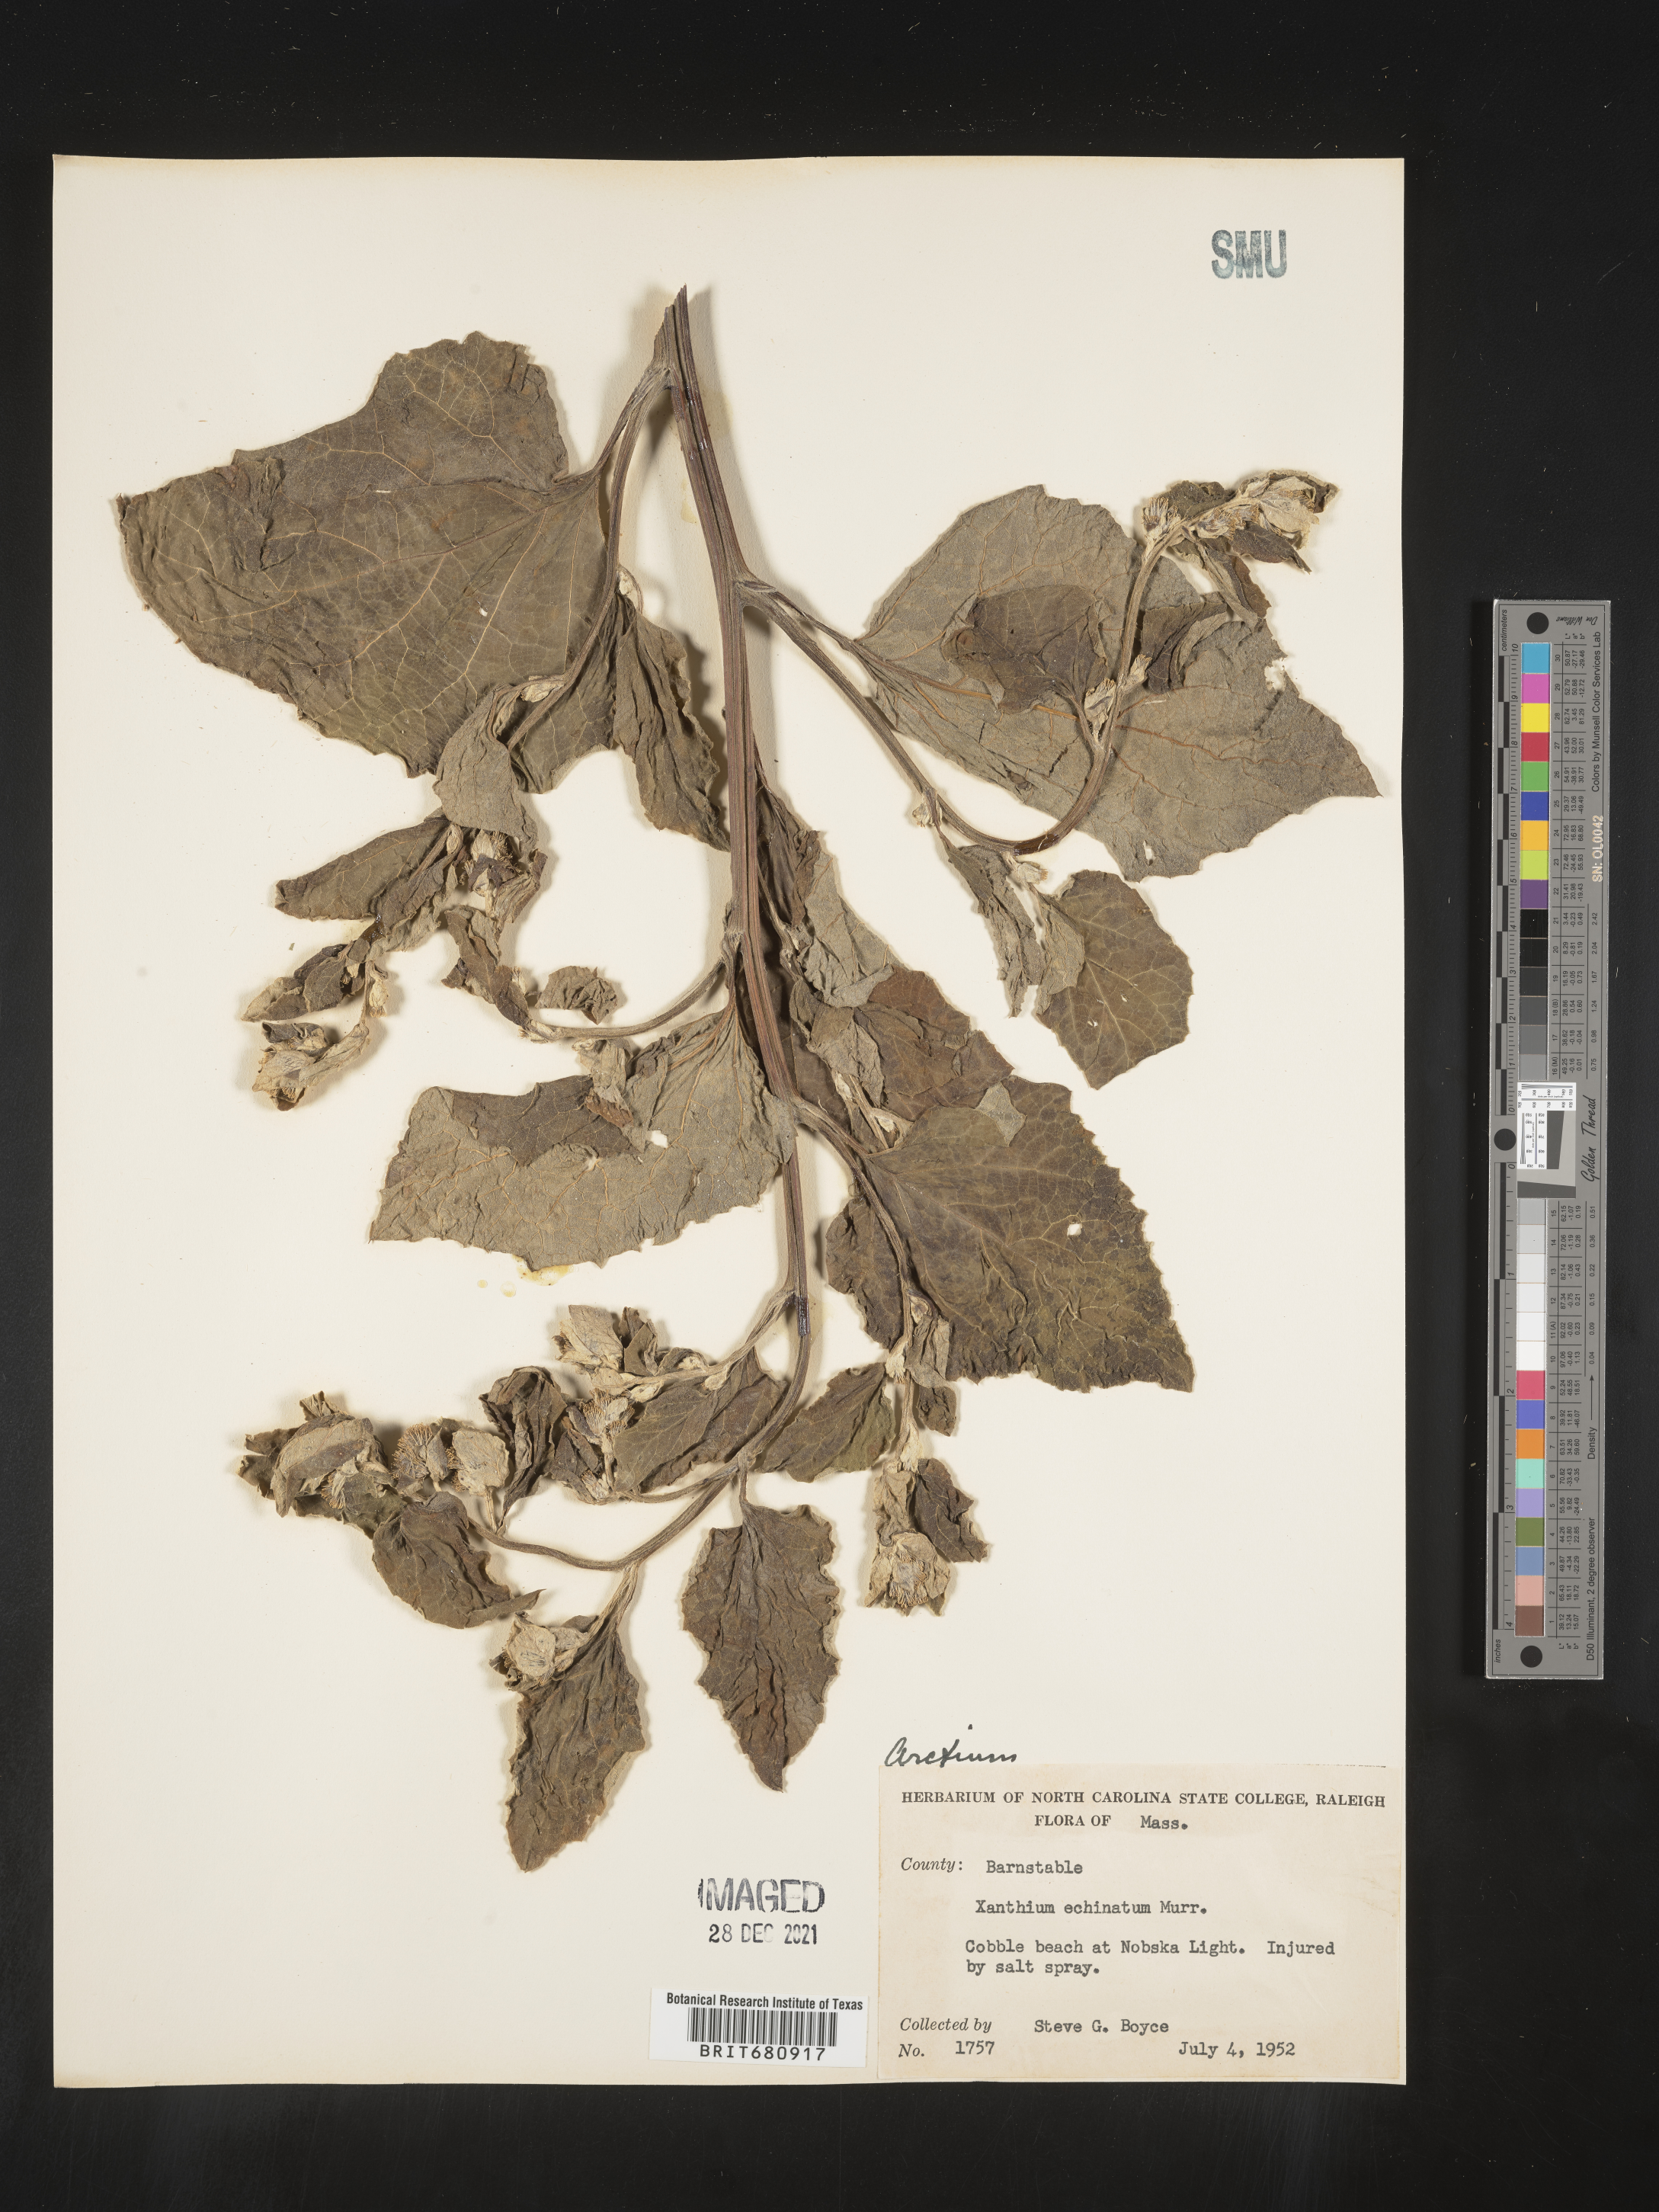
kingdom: Plantae
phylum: Tracheophyta
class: Magnoliopsida
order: Asterales
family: Asteraceae
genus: Arctium
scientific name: Arctium
